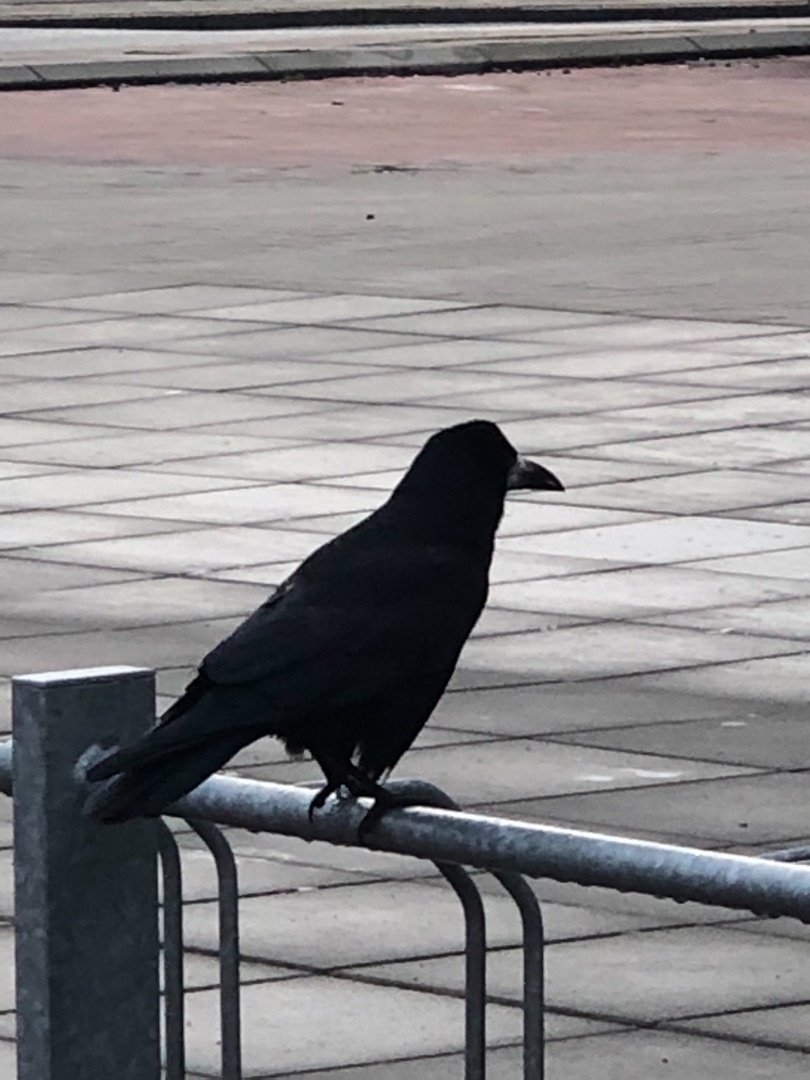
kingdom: Animalia
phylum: Chordata
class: Aves
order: Passeriformes
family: Corvidae
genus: Corvus
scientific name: Corvus frugilegus
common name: Råge
